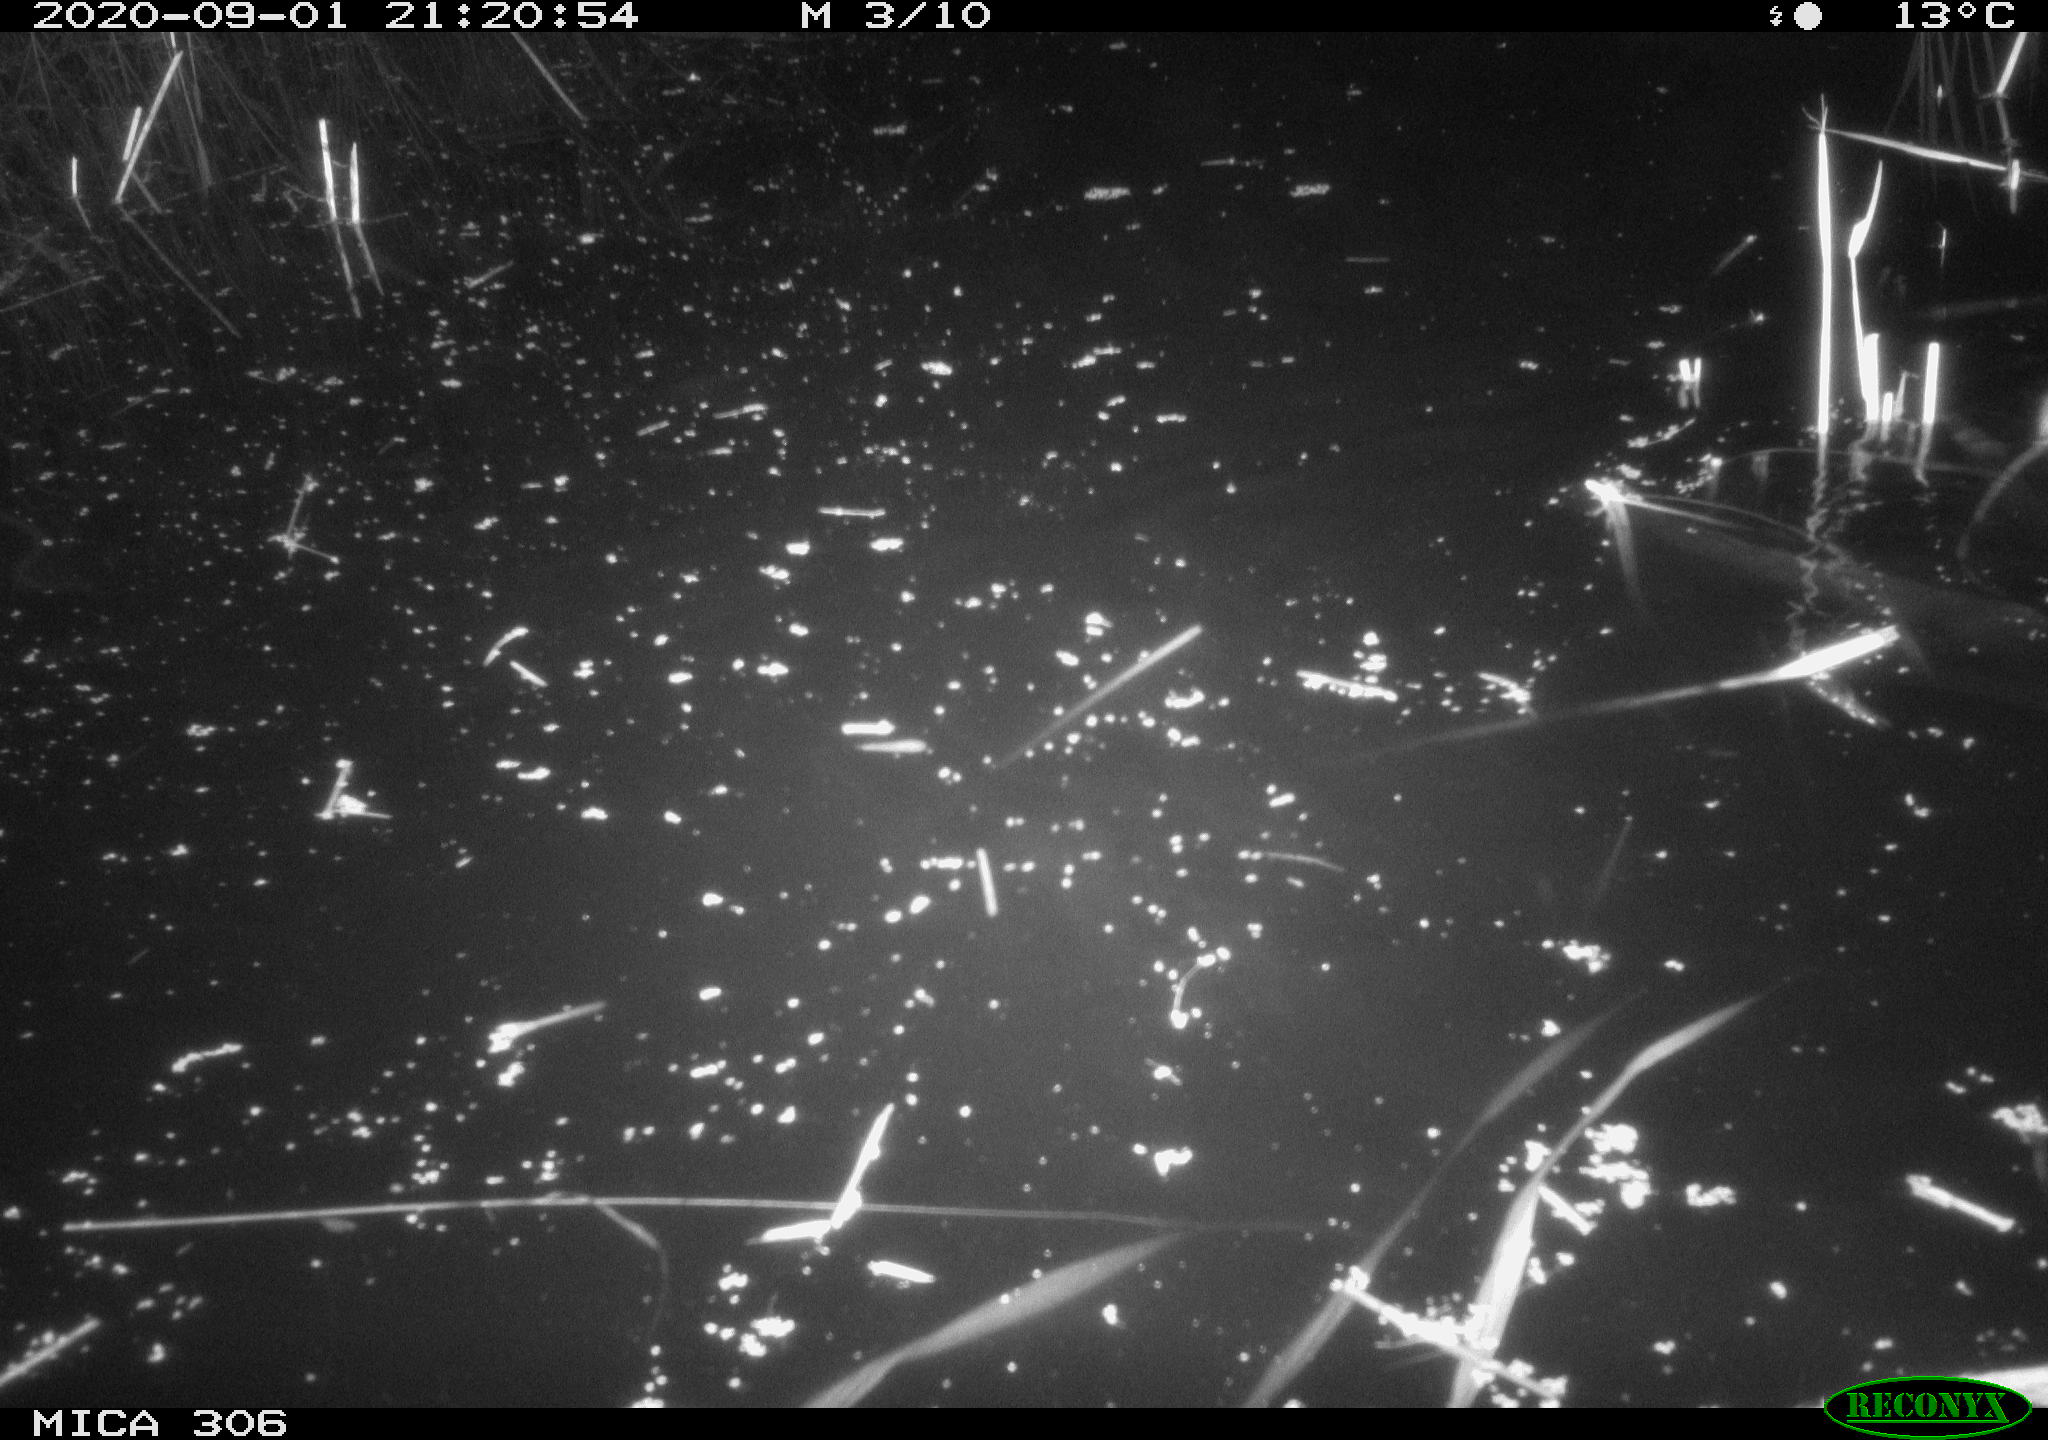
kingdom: Animalia
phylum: Chordata
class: Mammalia
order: Rodentia
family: Muridae
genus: Rattus
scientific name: Rattus norvegicus
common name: Brown rat
